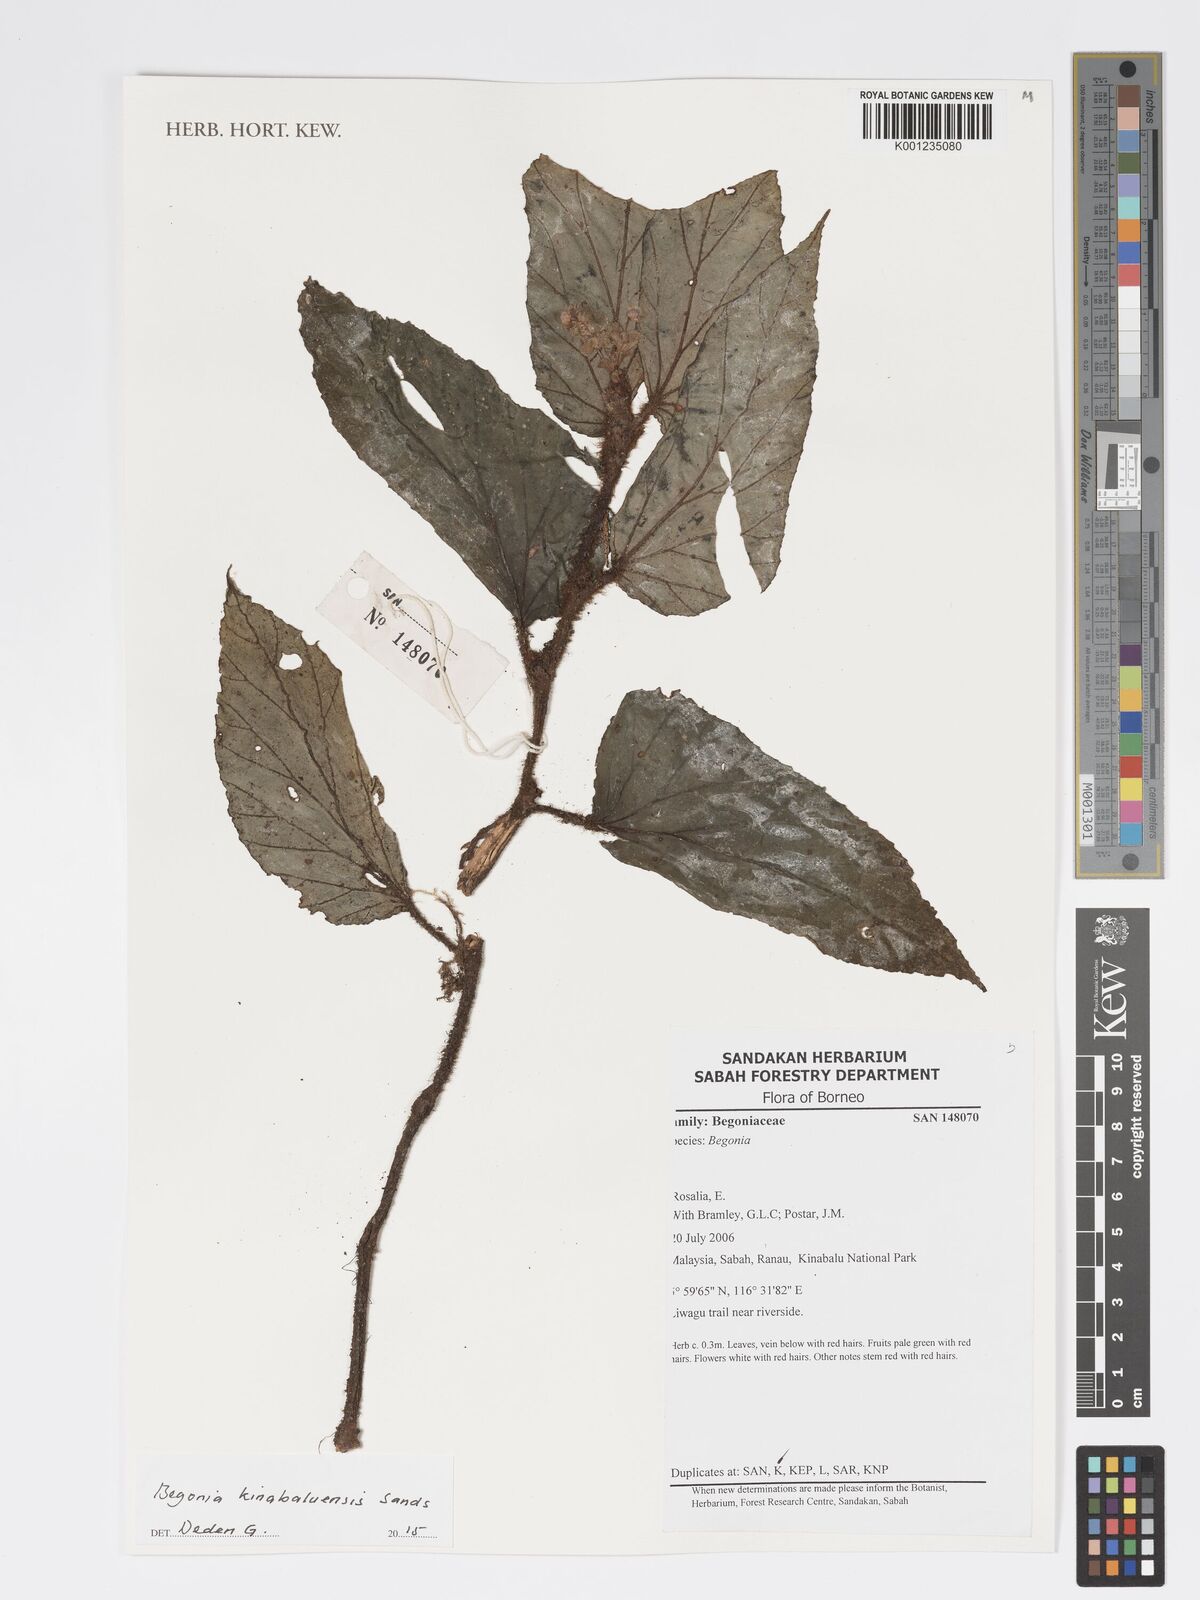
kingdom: Plantae
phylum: Tracheophyta
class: Magnoliopsida
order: Cucurbitales
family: Begoniaceae
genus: Begonia
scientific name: Begonia kinabaluensis
